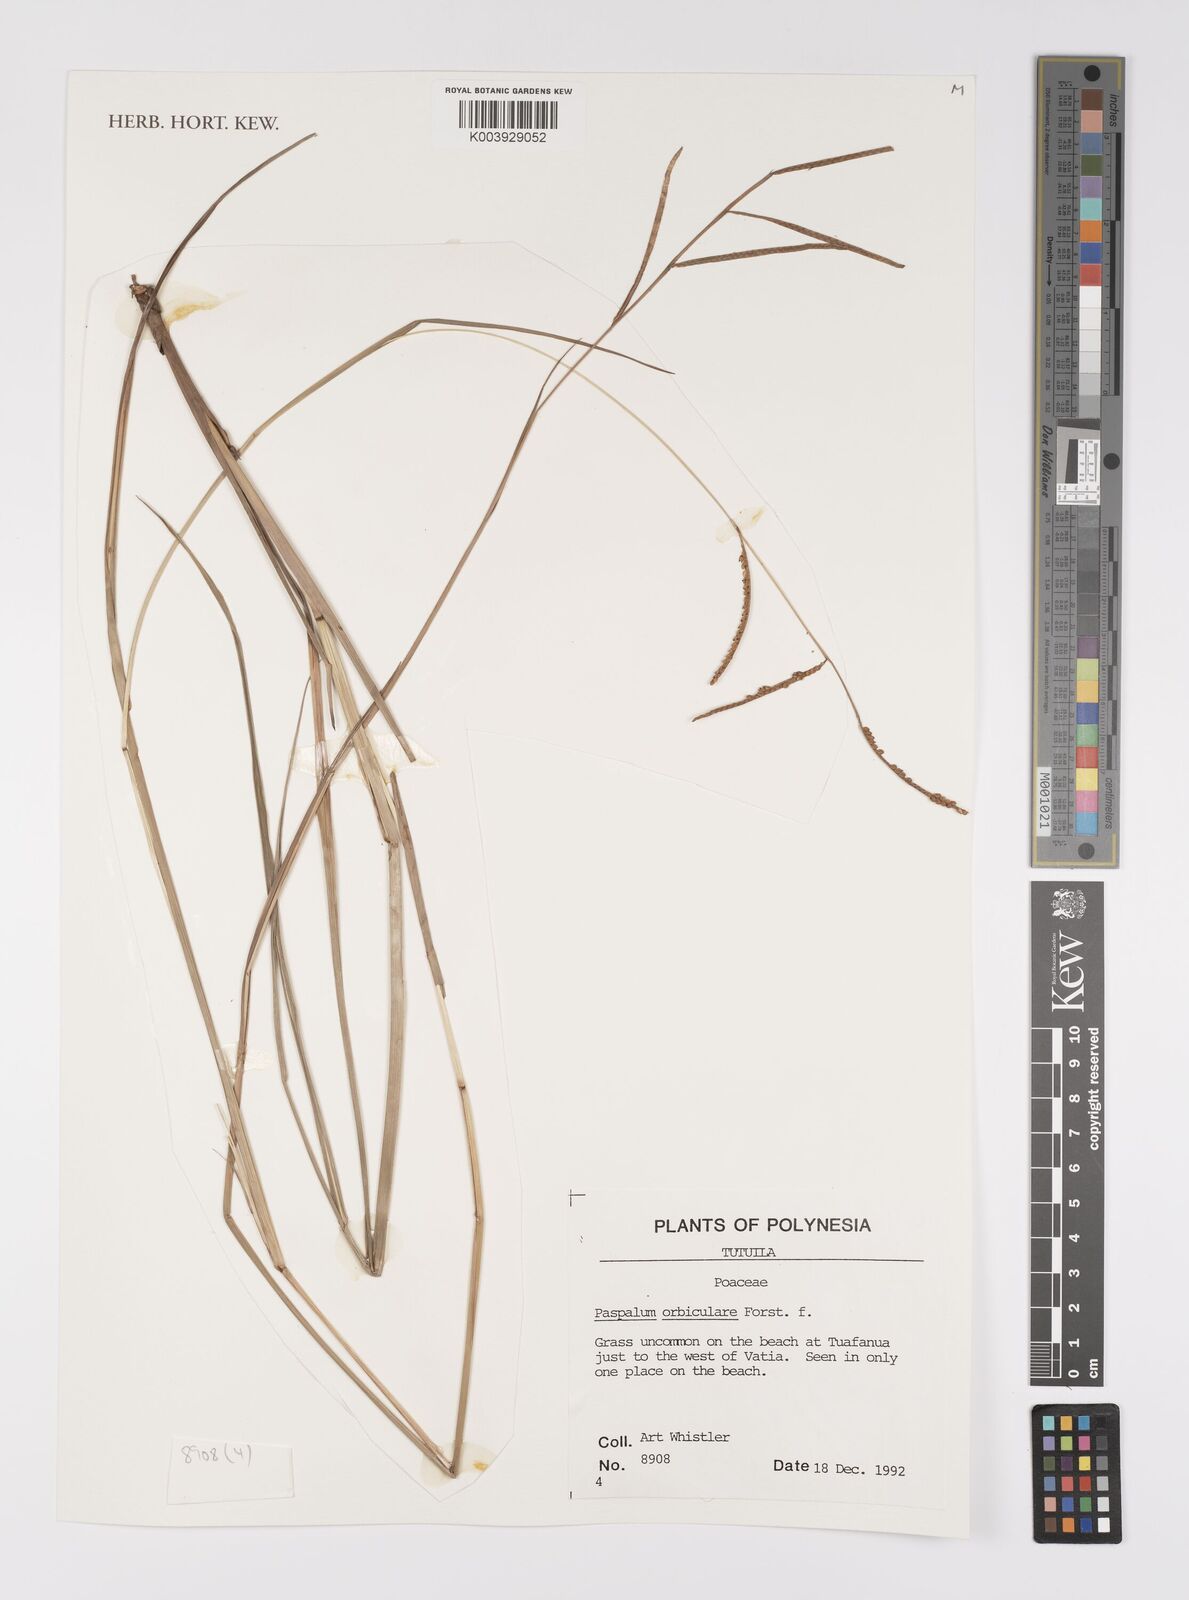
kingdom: Plantae
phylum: Tracheophyta
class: Liliopsida
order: Poales
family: Poaceae
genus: Paspalum
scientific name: Paspalum scrobiculatum
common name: Kodo millet
